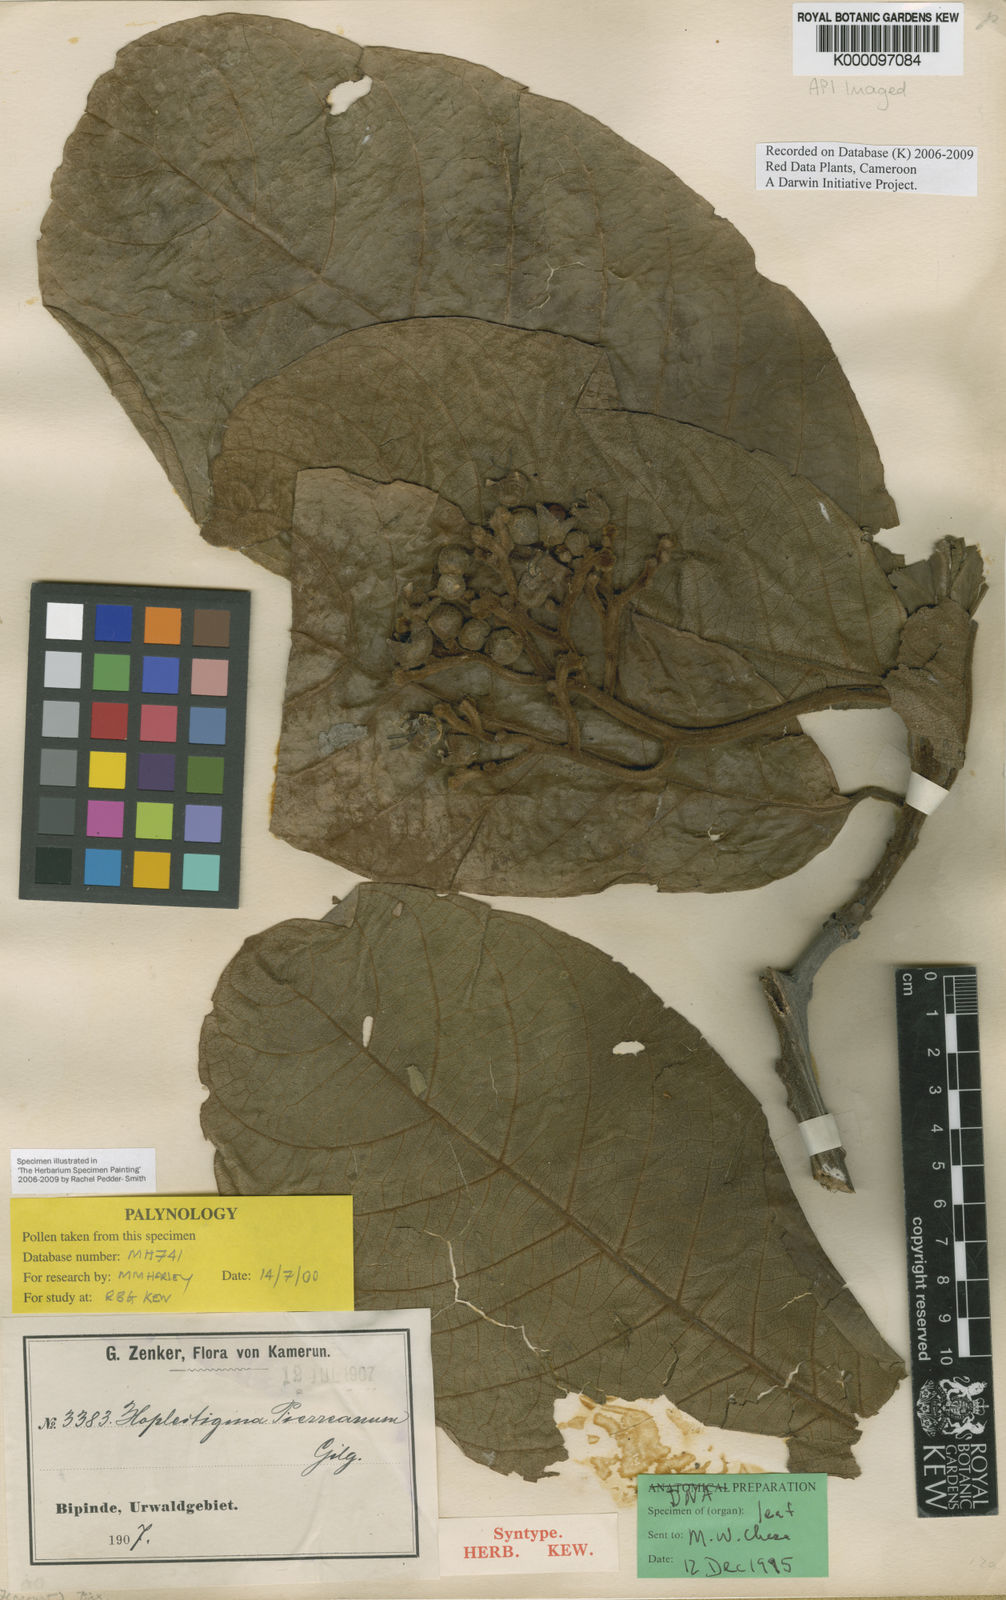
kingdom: Plantae
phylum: Tracheophyta
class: Magnoliopsida
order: Boraginales
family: Hoplestigmataceae
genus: Hoplestigma
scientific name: Hoplestigma pierreanum
